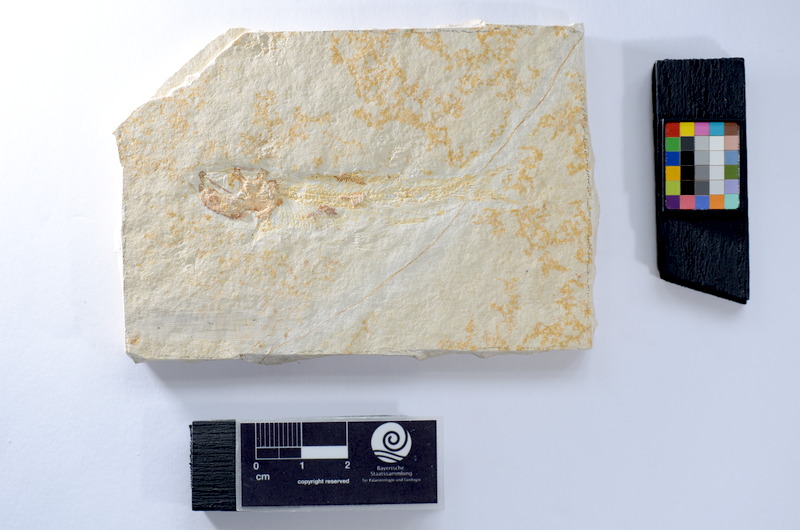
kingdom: Animalia
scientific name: Animalia
